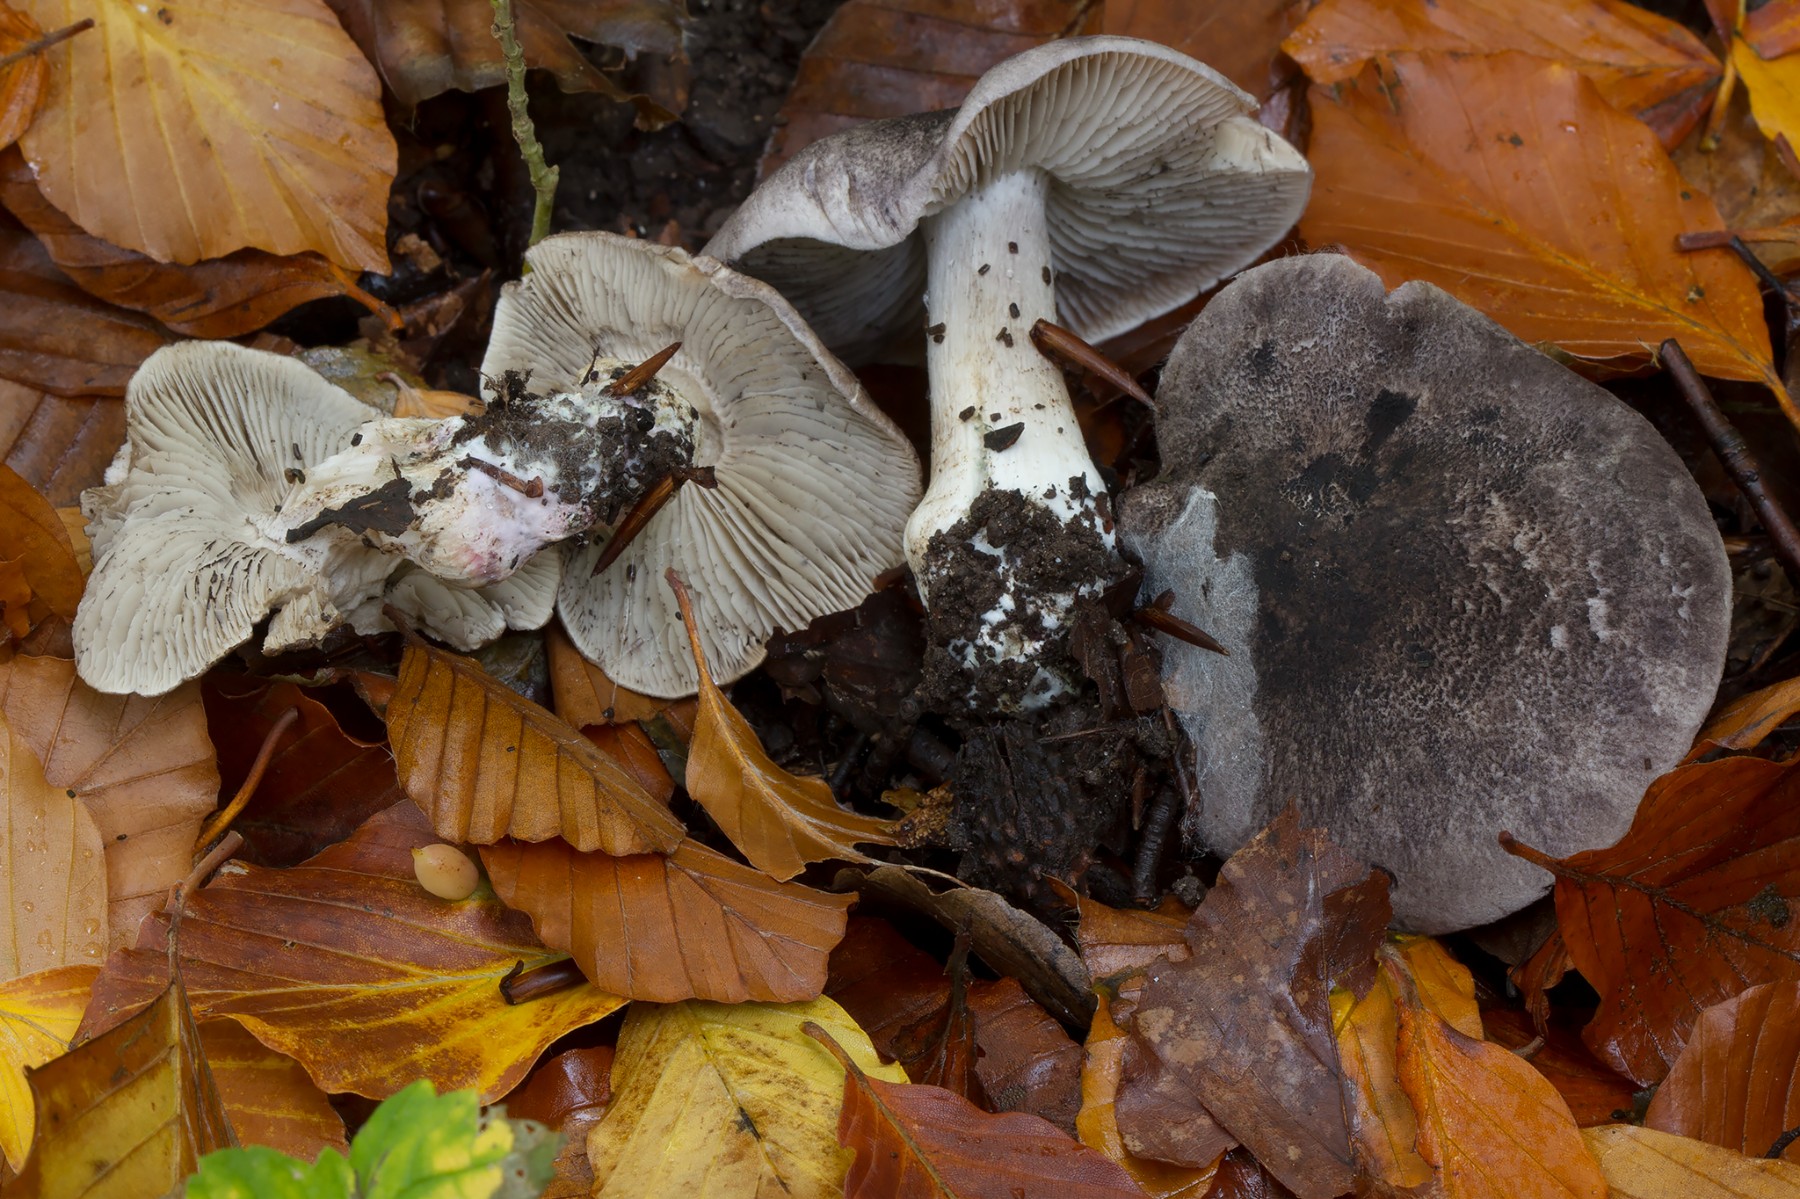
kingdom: Fungi
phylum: Basidiomycota
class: Agaricomycetes
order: Agaricales
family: Tricholomataceae
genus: Tricholoma
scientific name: Tricholoma orirubens
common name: rødbladet ridderhat
